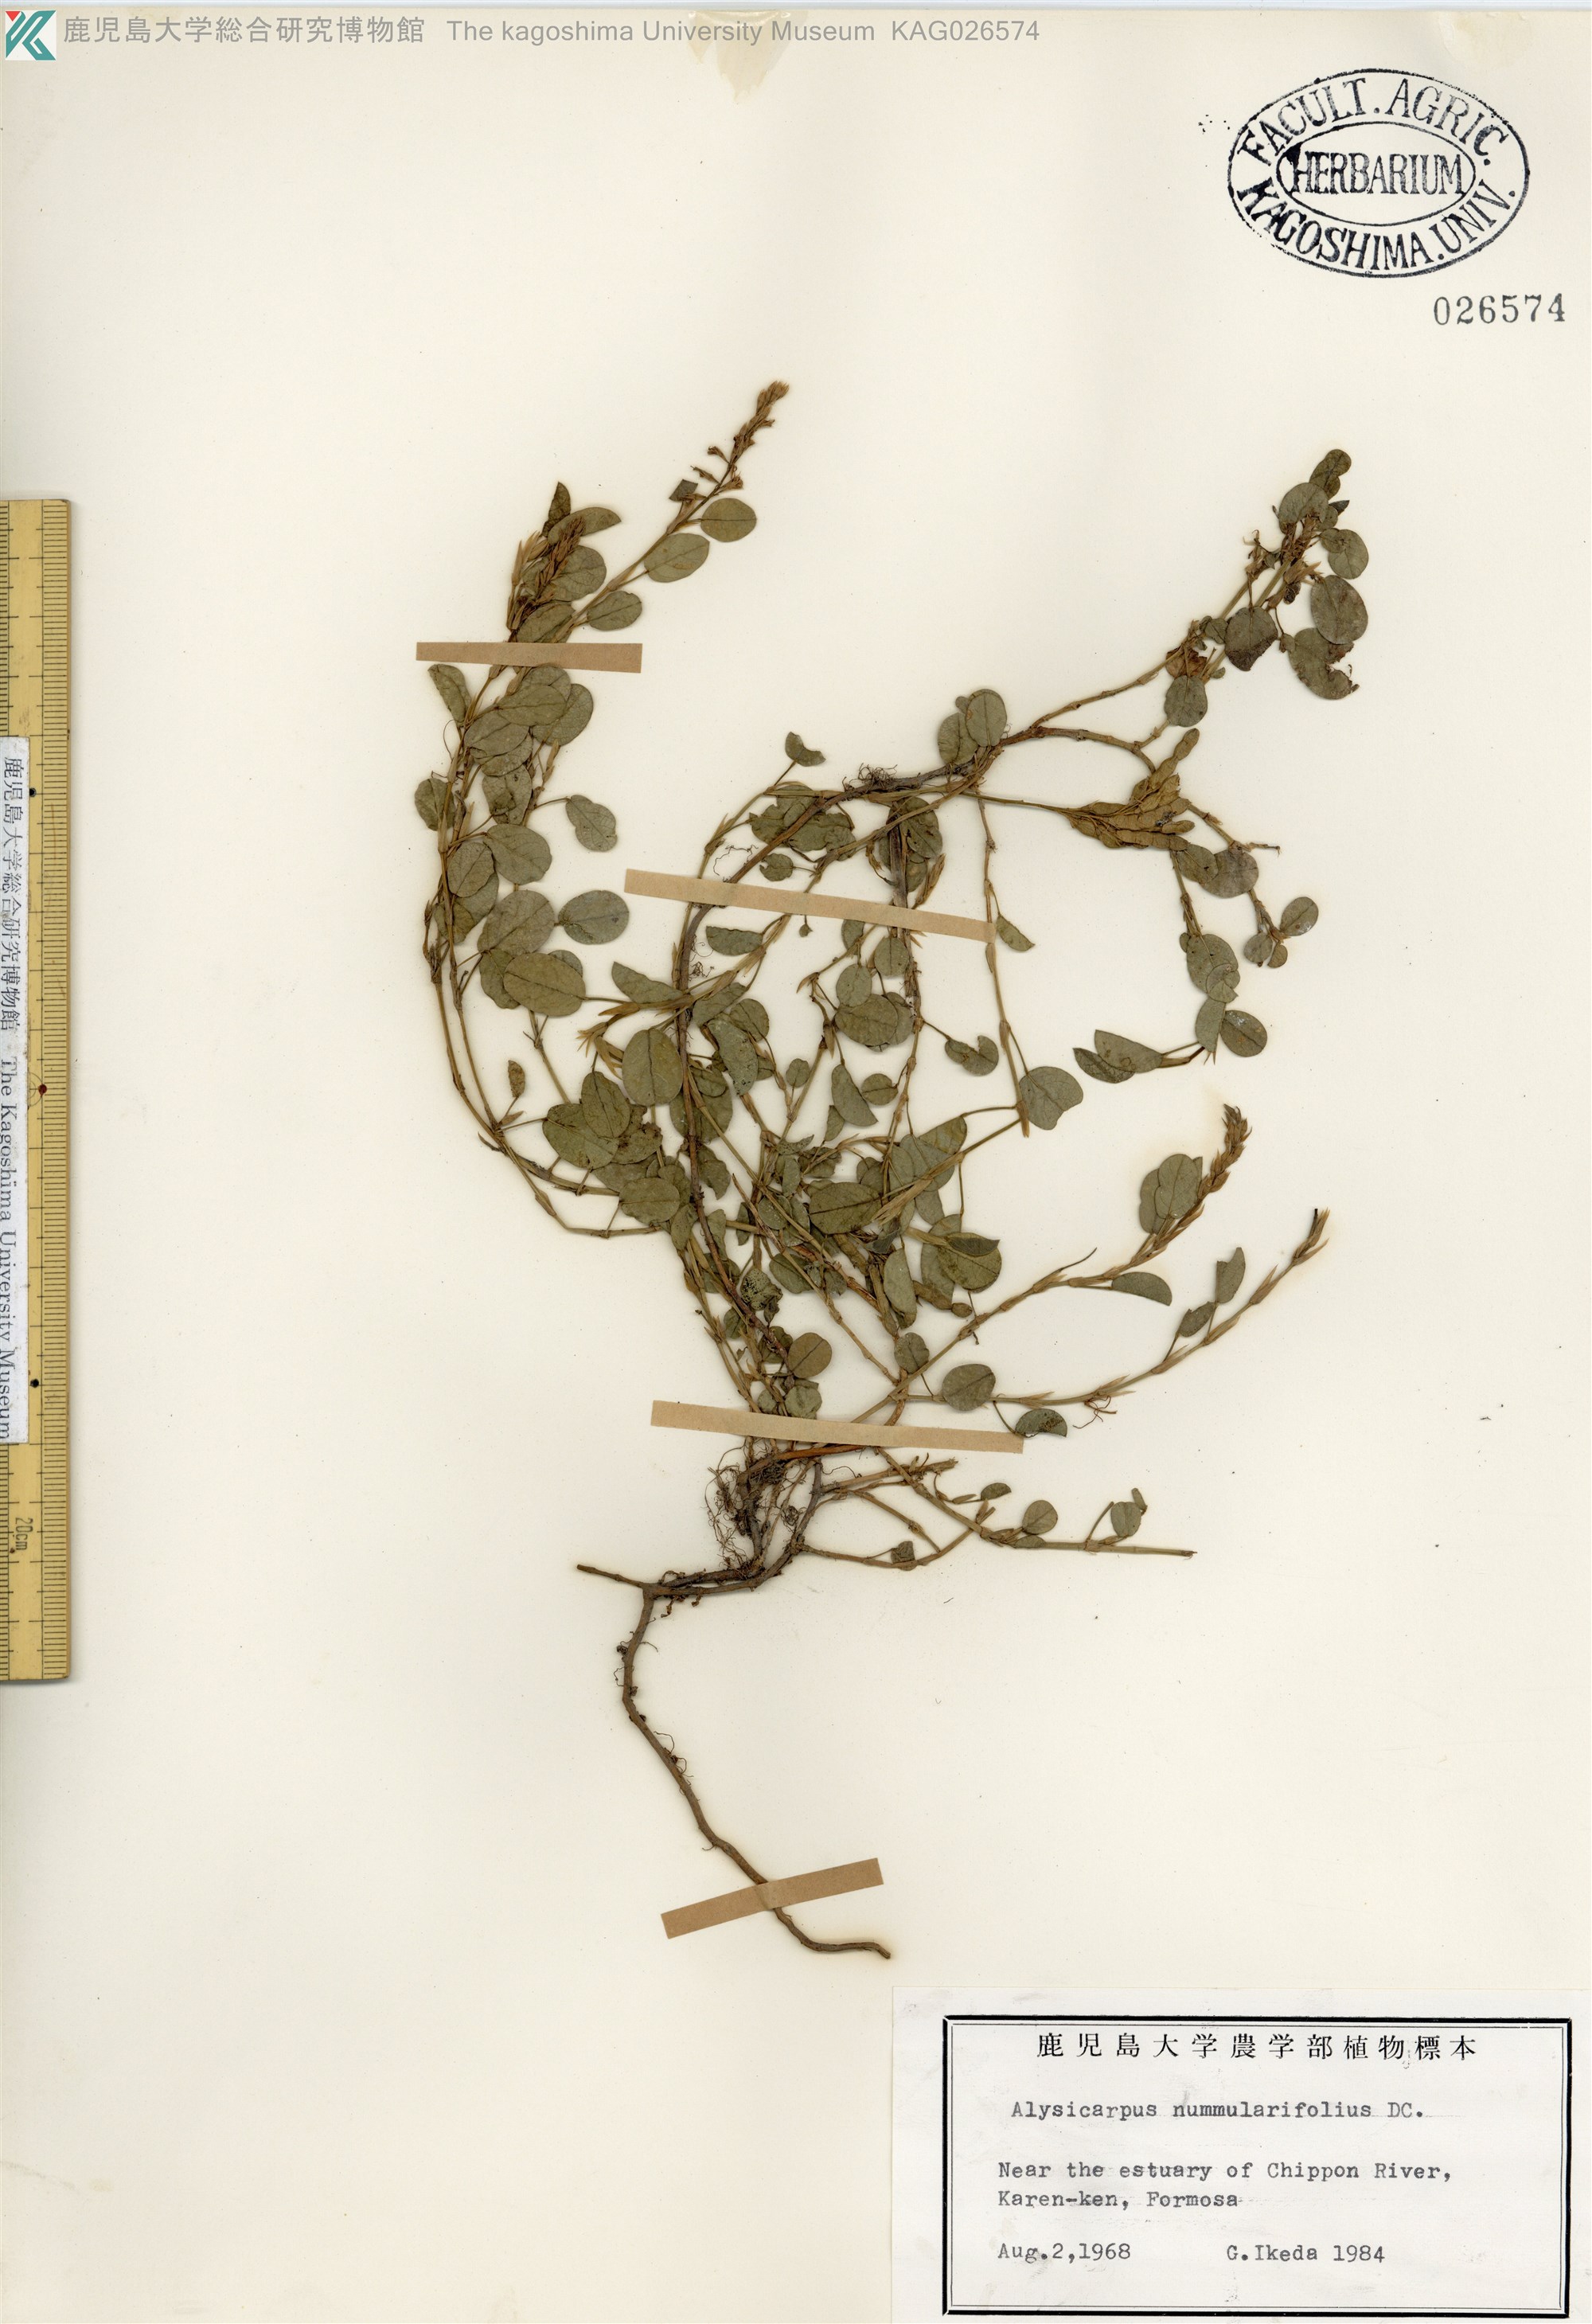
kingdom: Plantae
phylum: Tracheophyta
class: Magnoliopsida
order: Fabales
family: Fabaceae
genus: Alysicarpus
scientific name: Alysicarpus vaginalis
